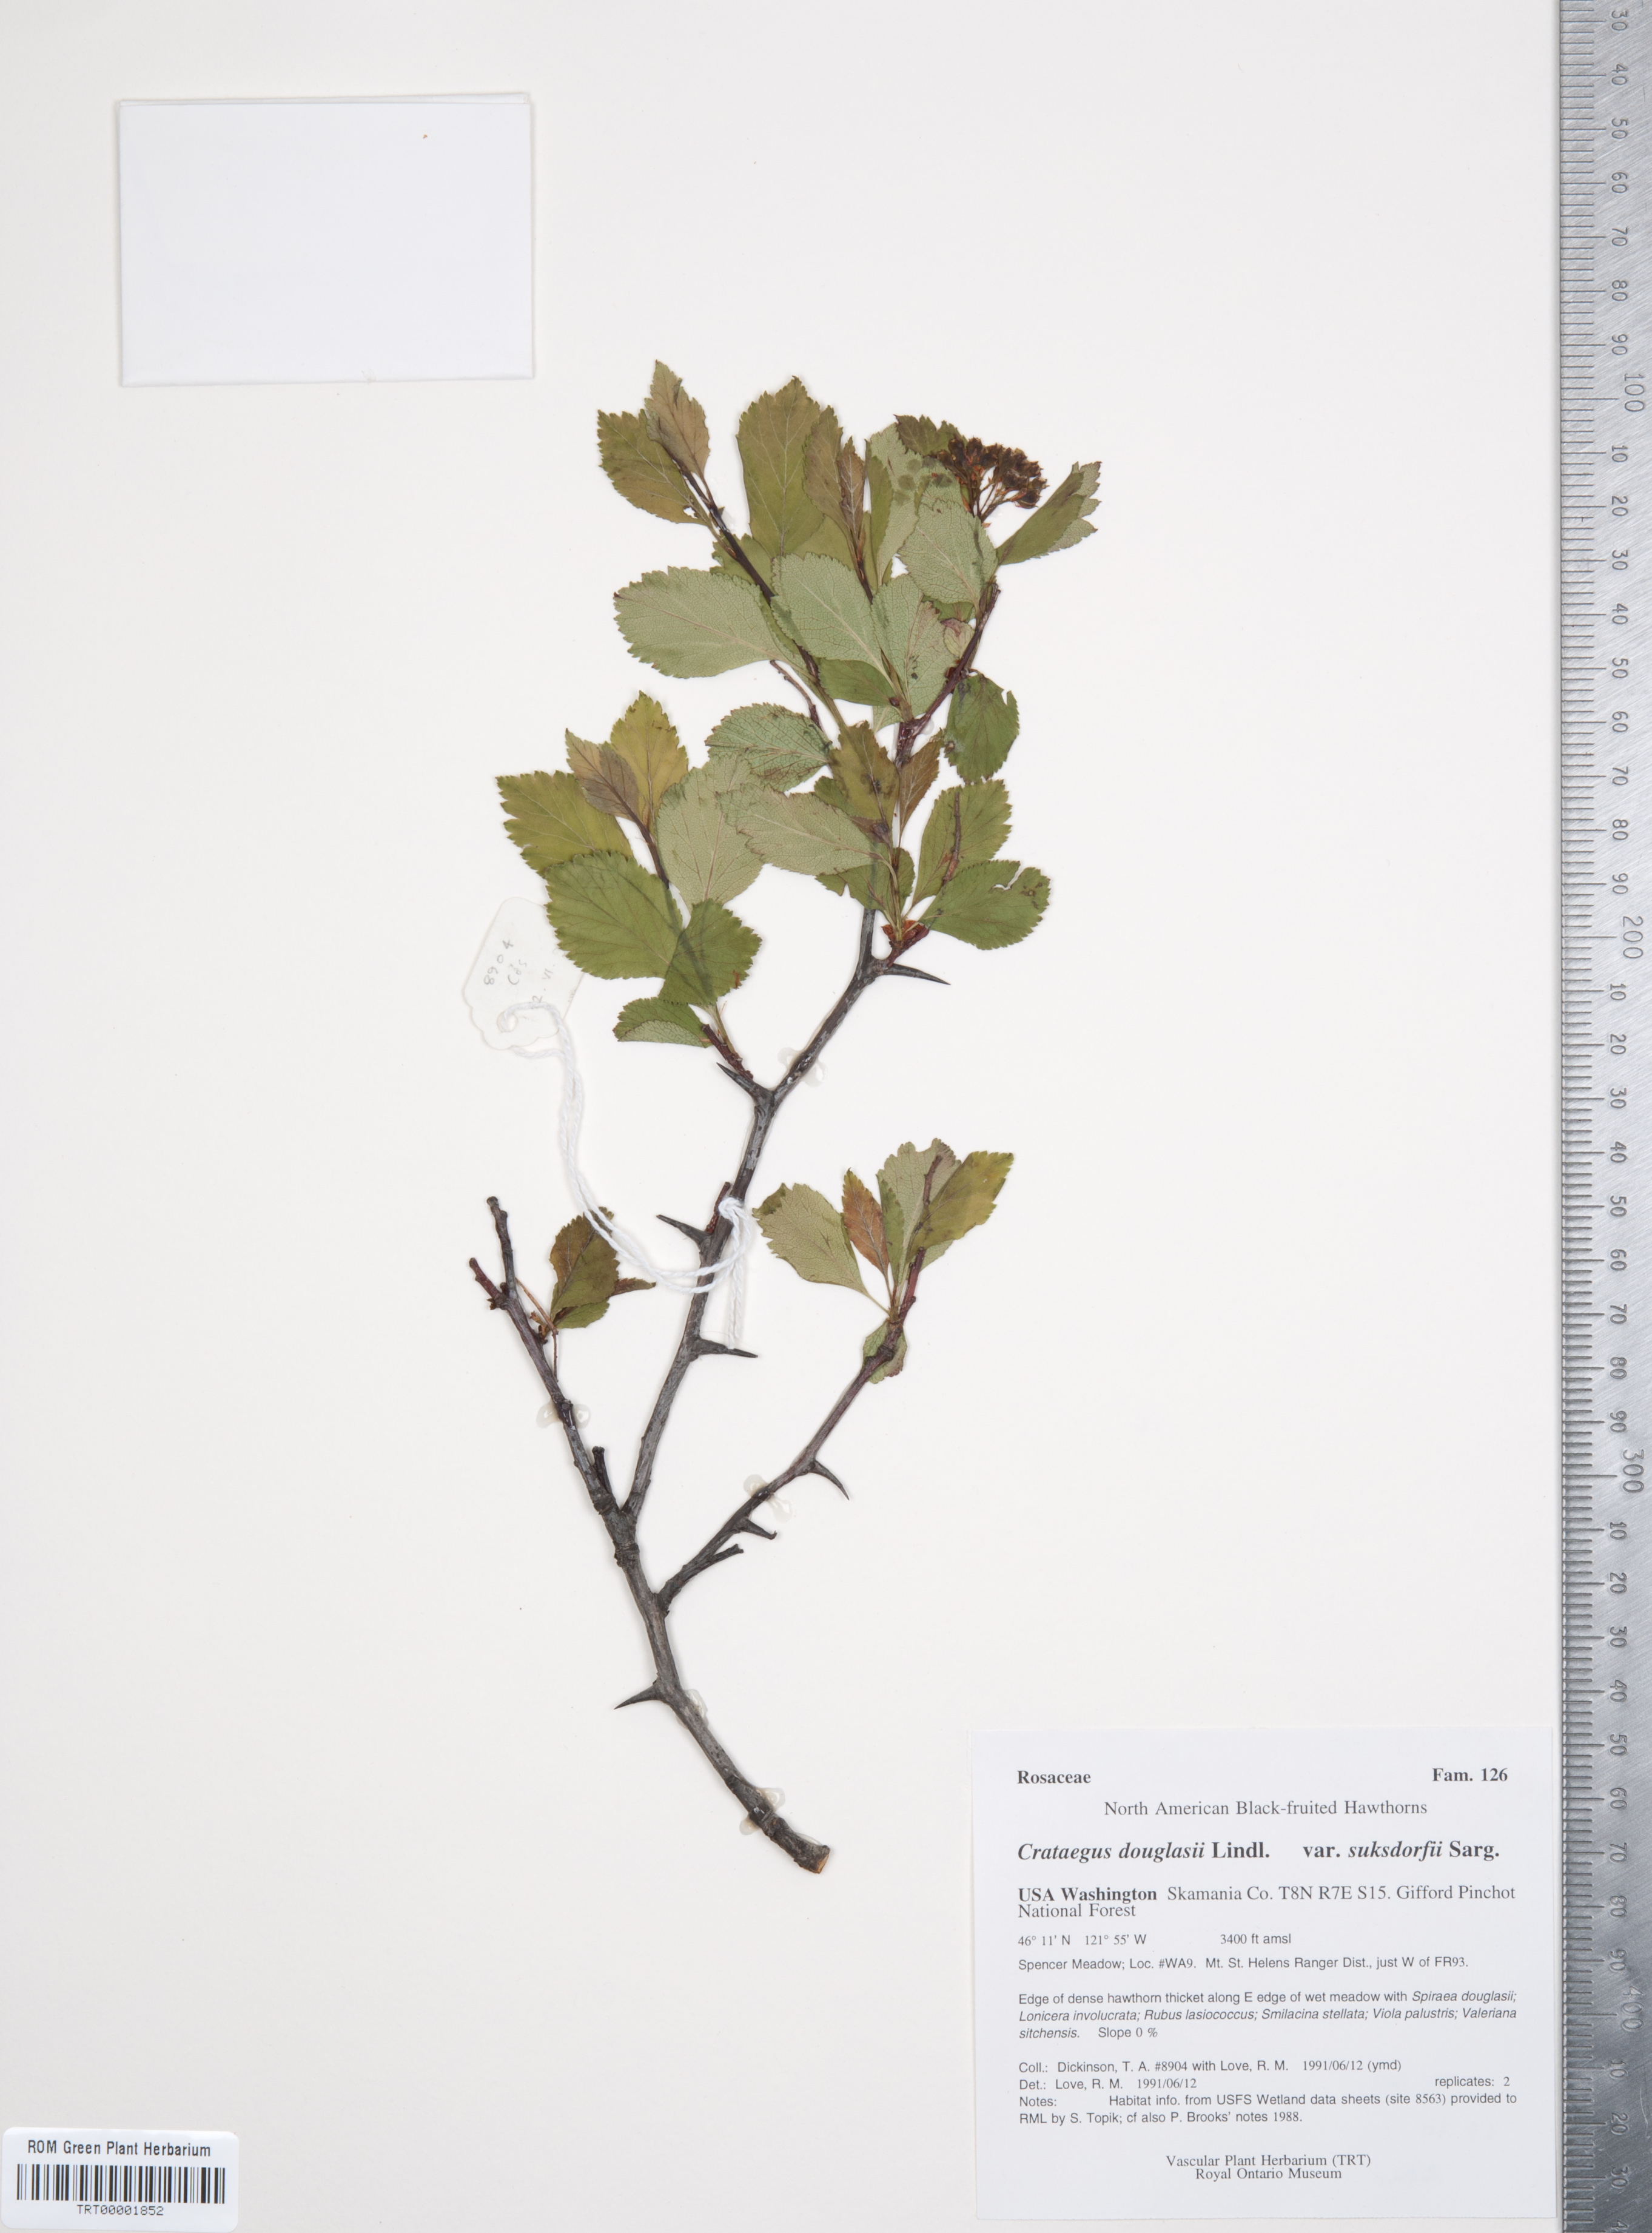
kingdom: Plantae
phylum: Tracheophyta
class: Magnoliopsida
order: Rosales
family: Rosaceae
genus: Crataegus
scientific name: Crataegus gaylussacia
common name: Huckleberry hawthorn
